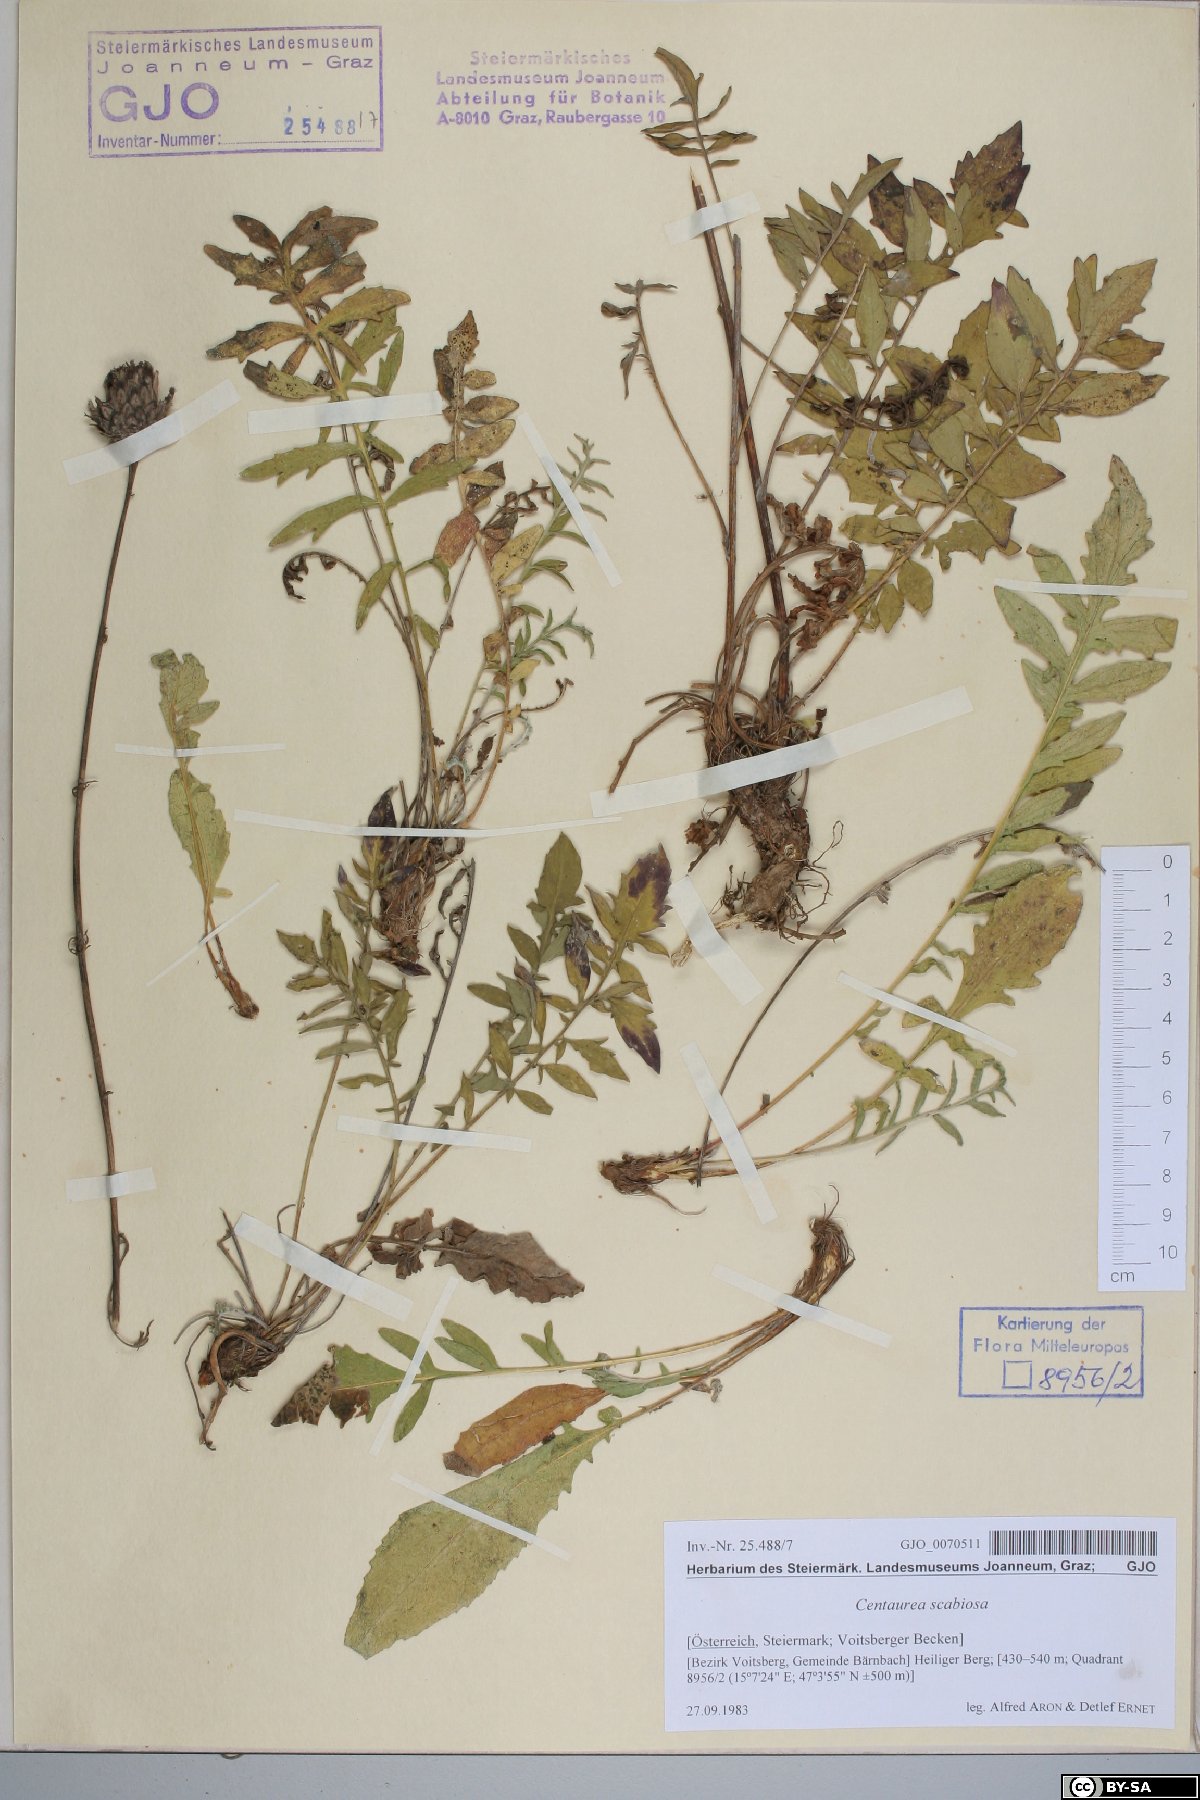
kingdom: Plantae
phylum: Tracheophyta
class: Magnoliopsida
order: Asterales
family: Asteraceae
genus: Centaurea
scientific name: Centaurea scabiosa
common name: Greater knapweed
